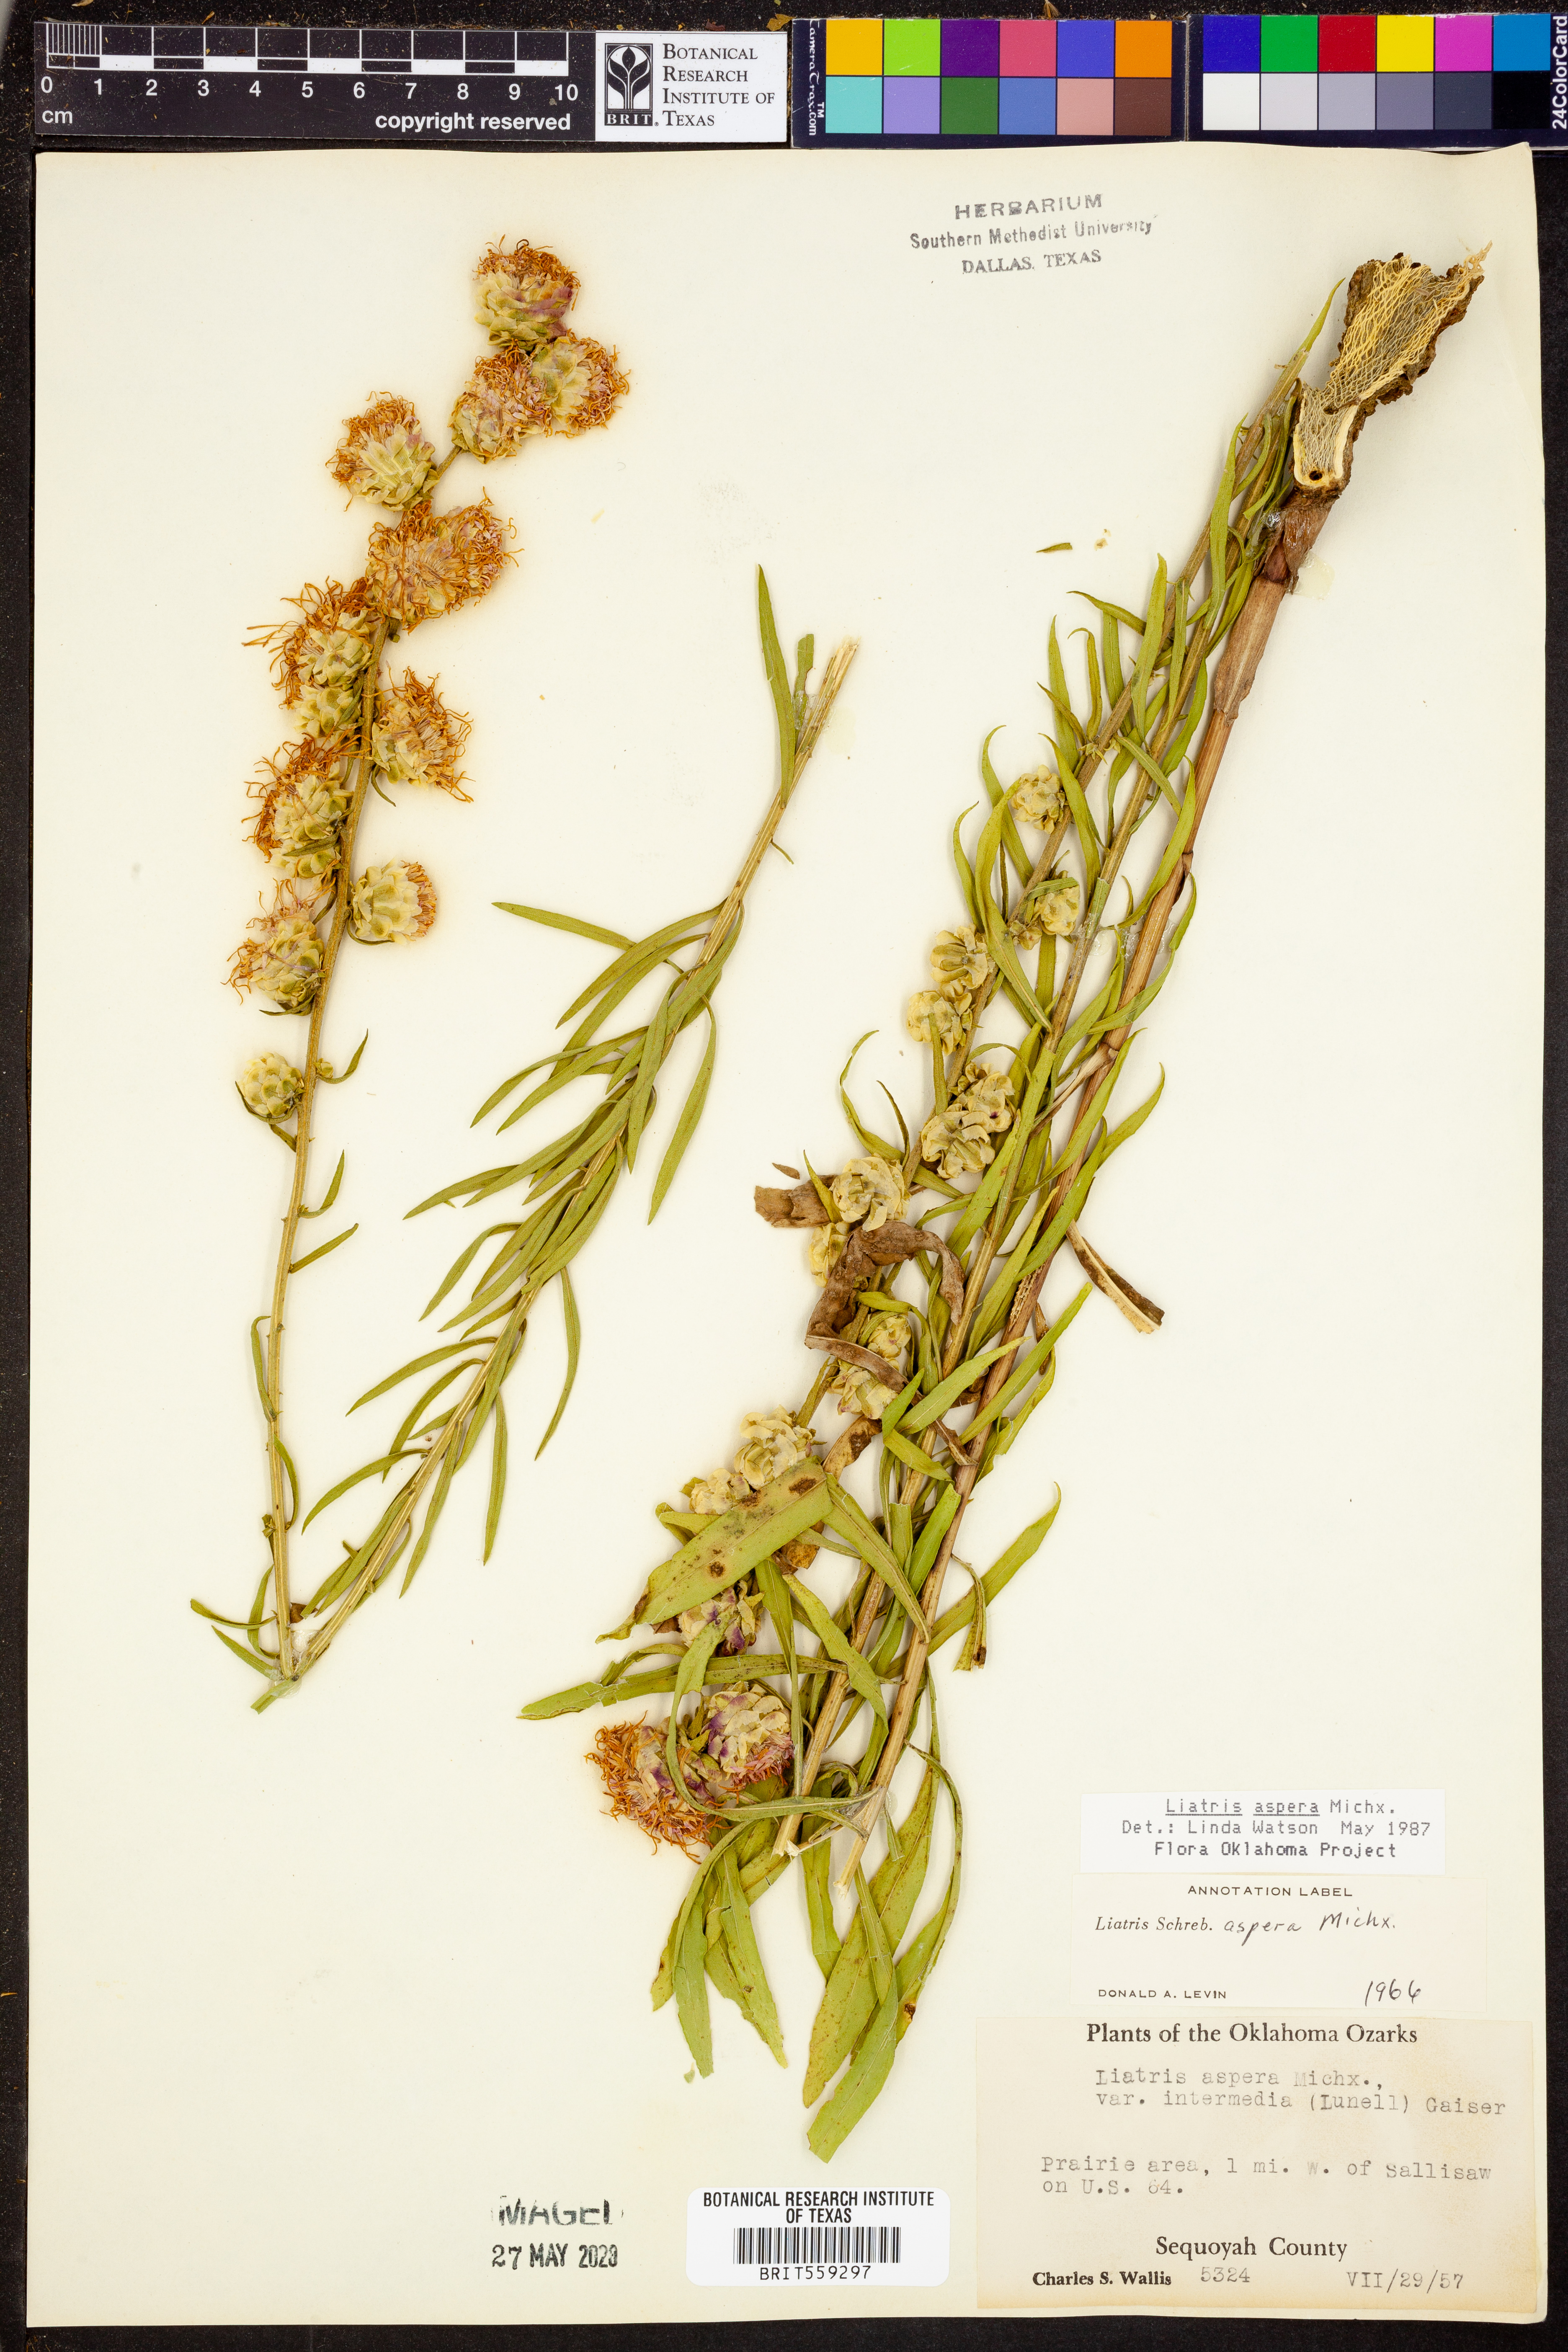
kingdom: Plantae
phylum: Tracheophyta
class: Magnoliopsida
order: Asterales
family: Asteraceae
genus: Liatris
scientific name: Liatris aspera
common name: Lacerate blazing-star
